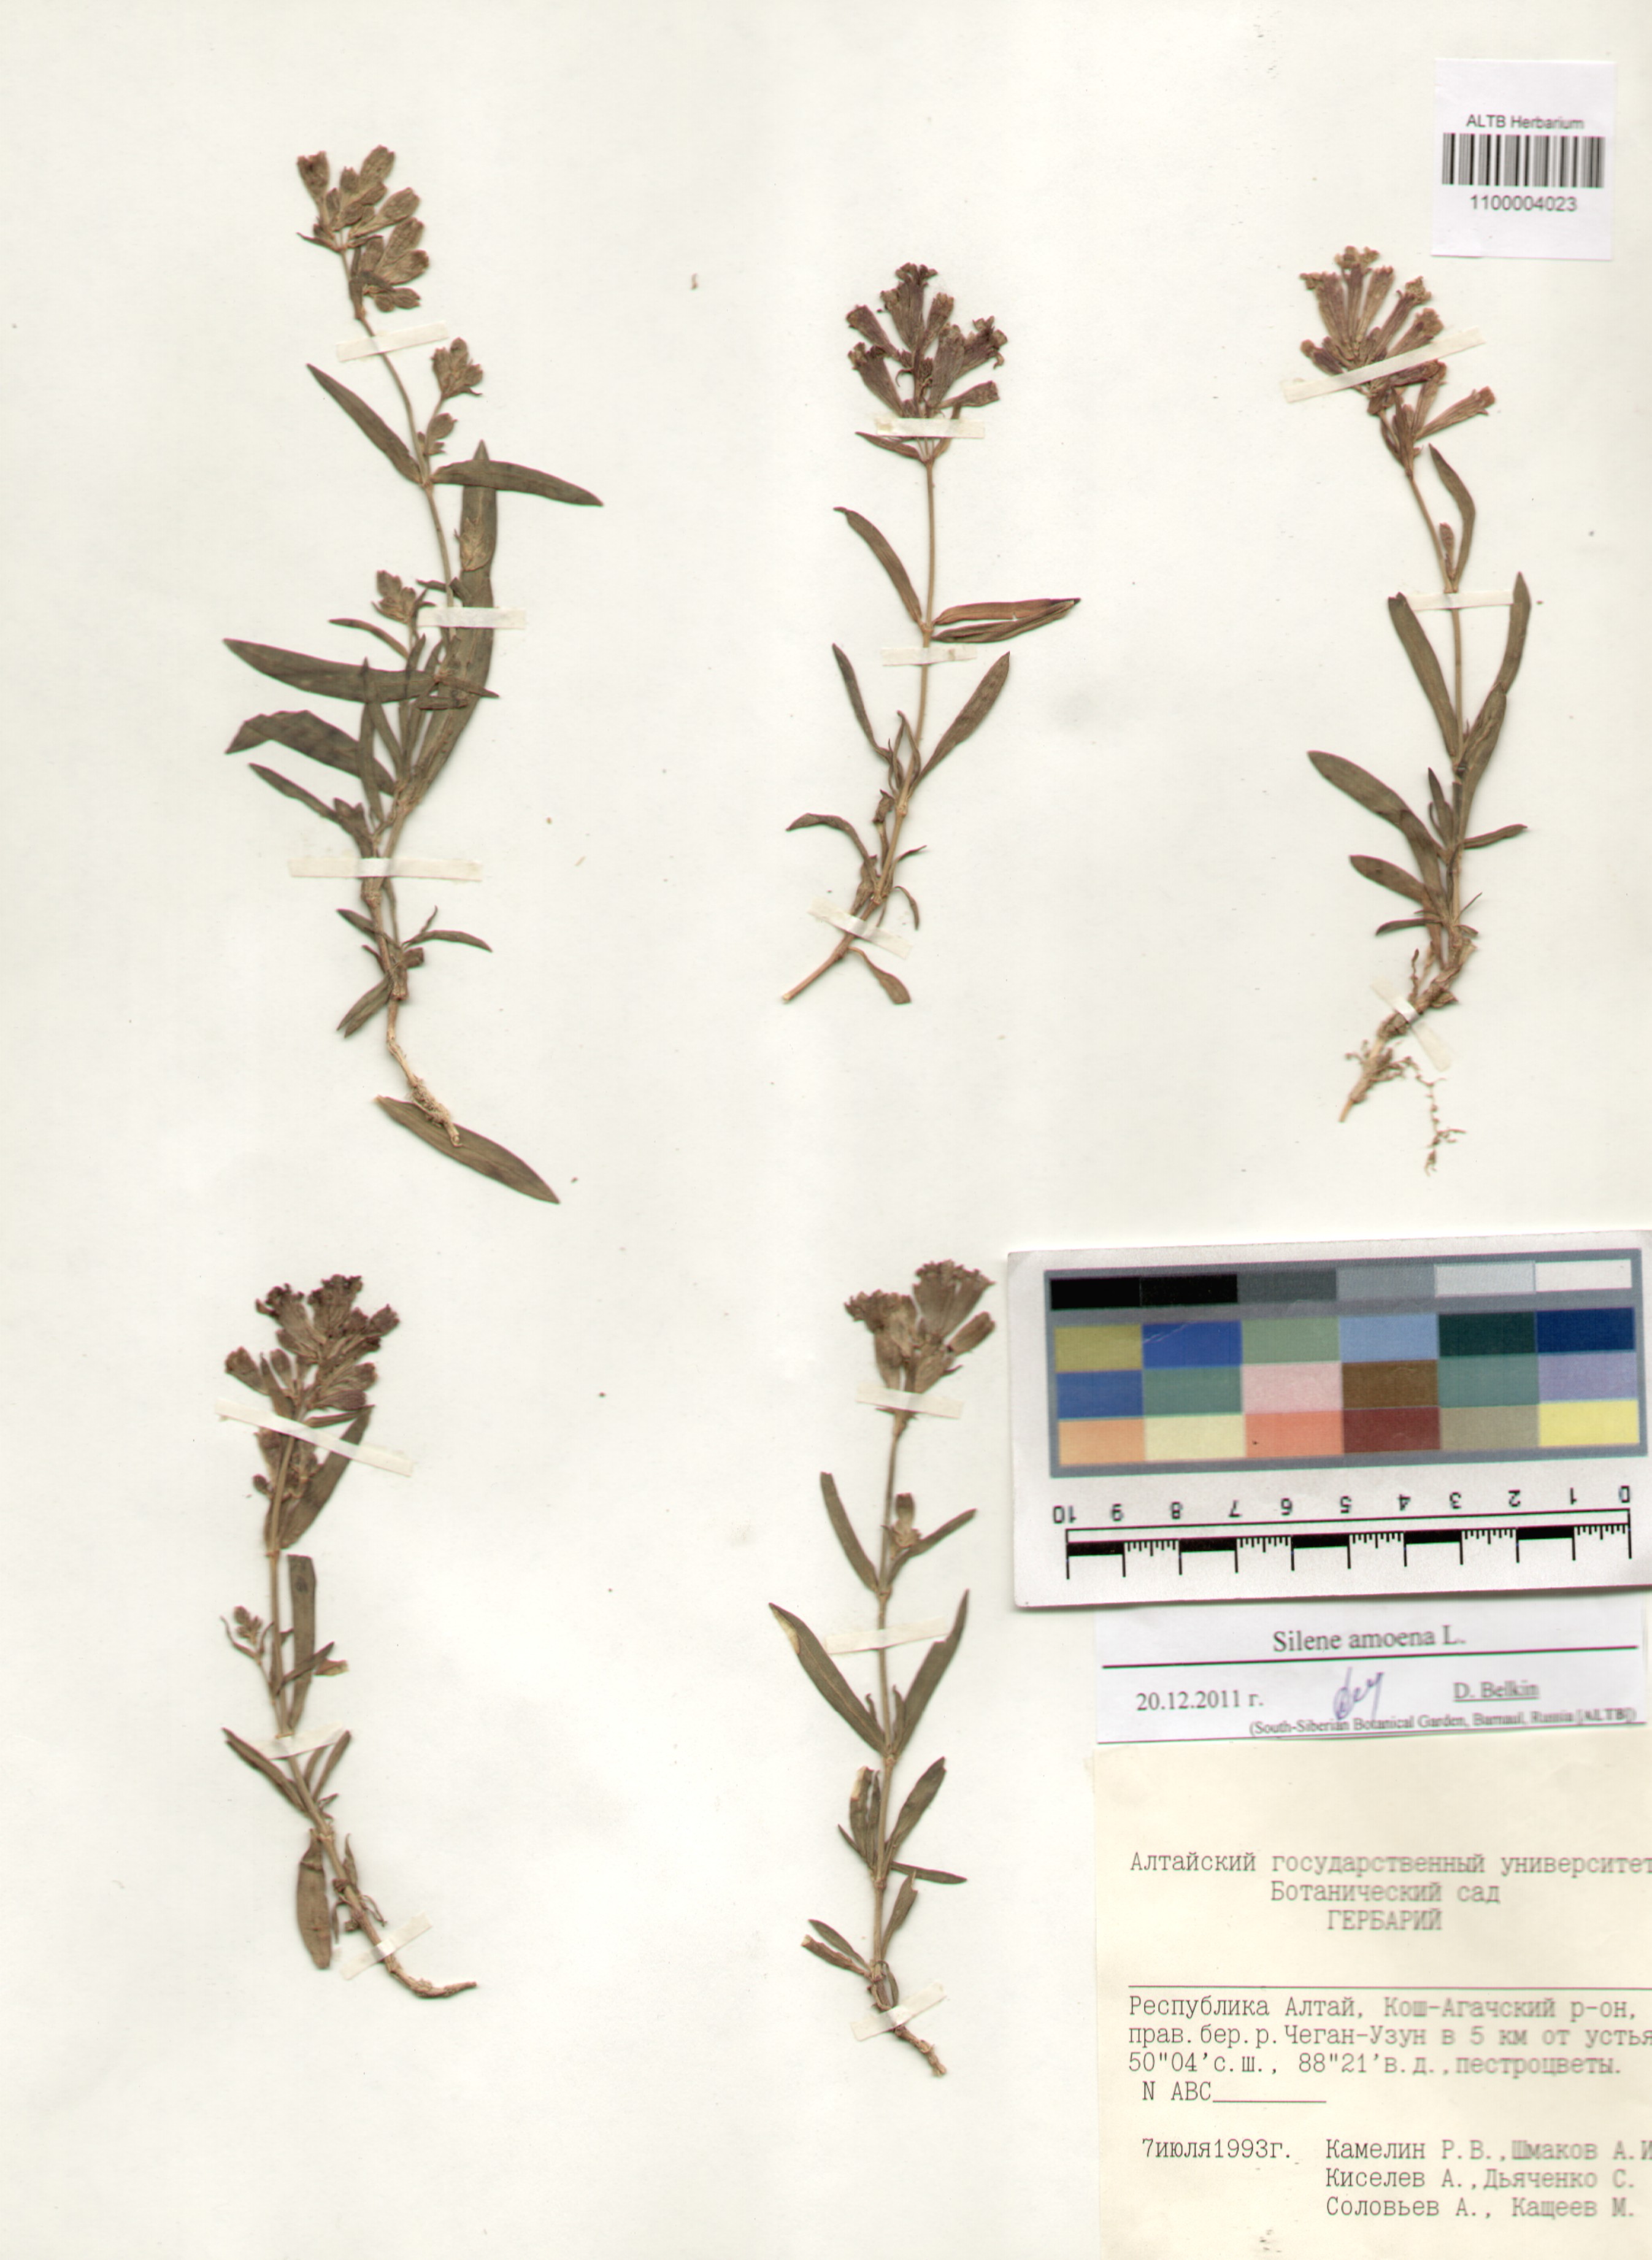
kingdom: Plantae
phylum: Tracheophyta
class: Magnoliopsida
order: Caryophyllales
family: Caryophyllaceae
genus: Silene
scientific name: Silene amoena
